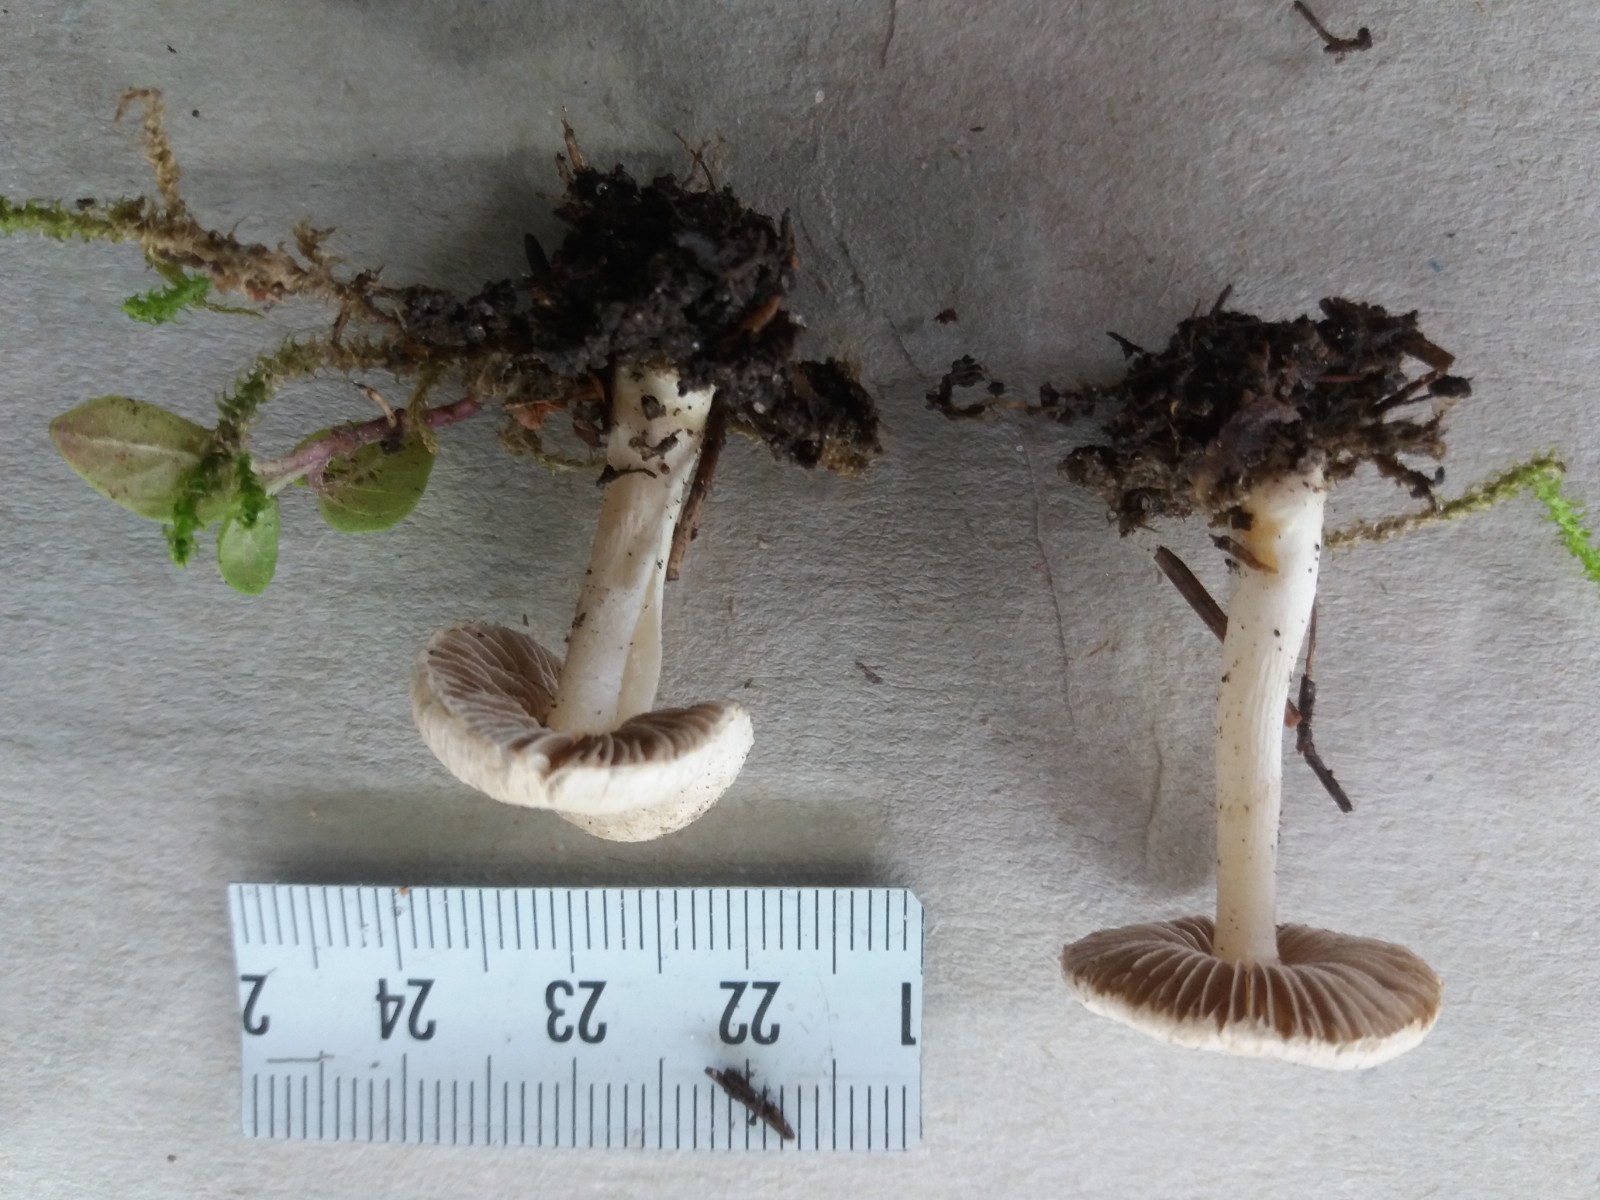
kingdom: Fungi
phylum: Basidiomycota
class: Agaricomycetes
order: Agaricales
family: Inocybaceae
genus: Inocybe
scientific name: Inocybe
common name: almindelig trævlhat
